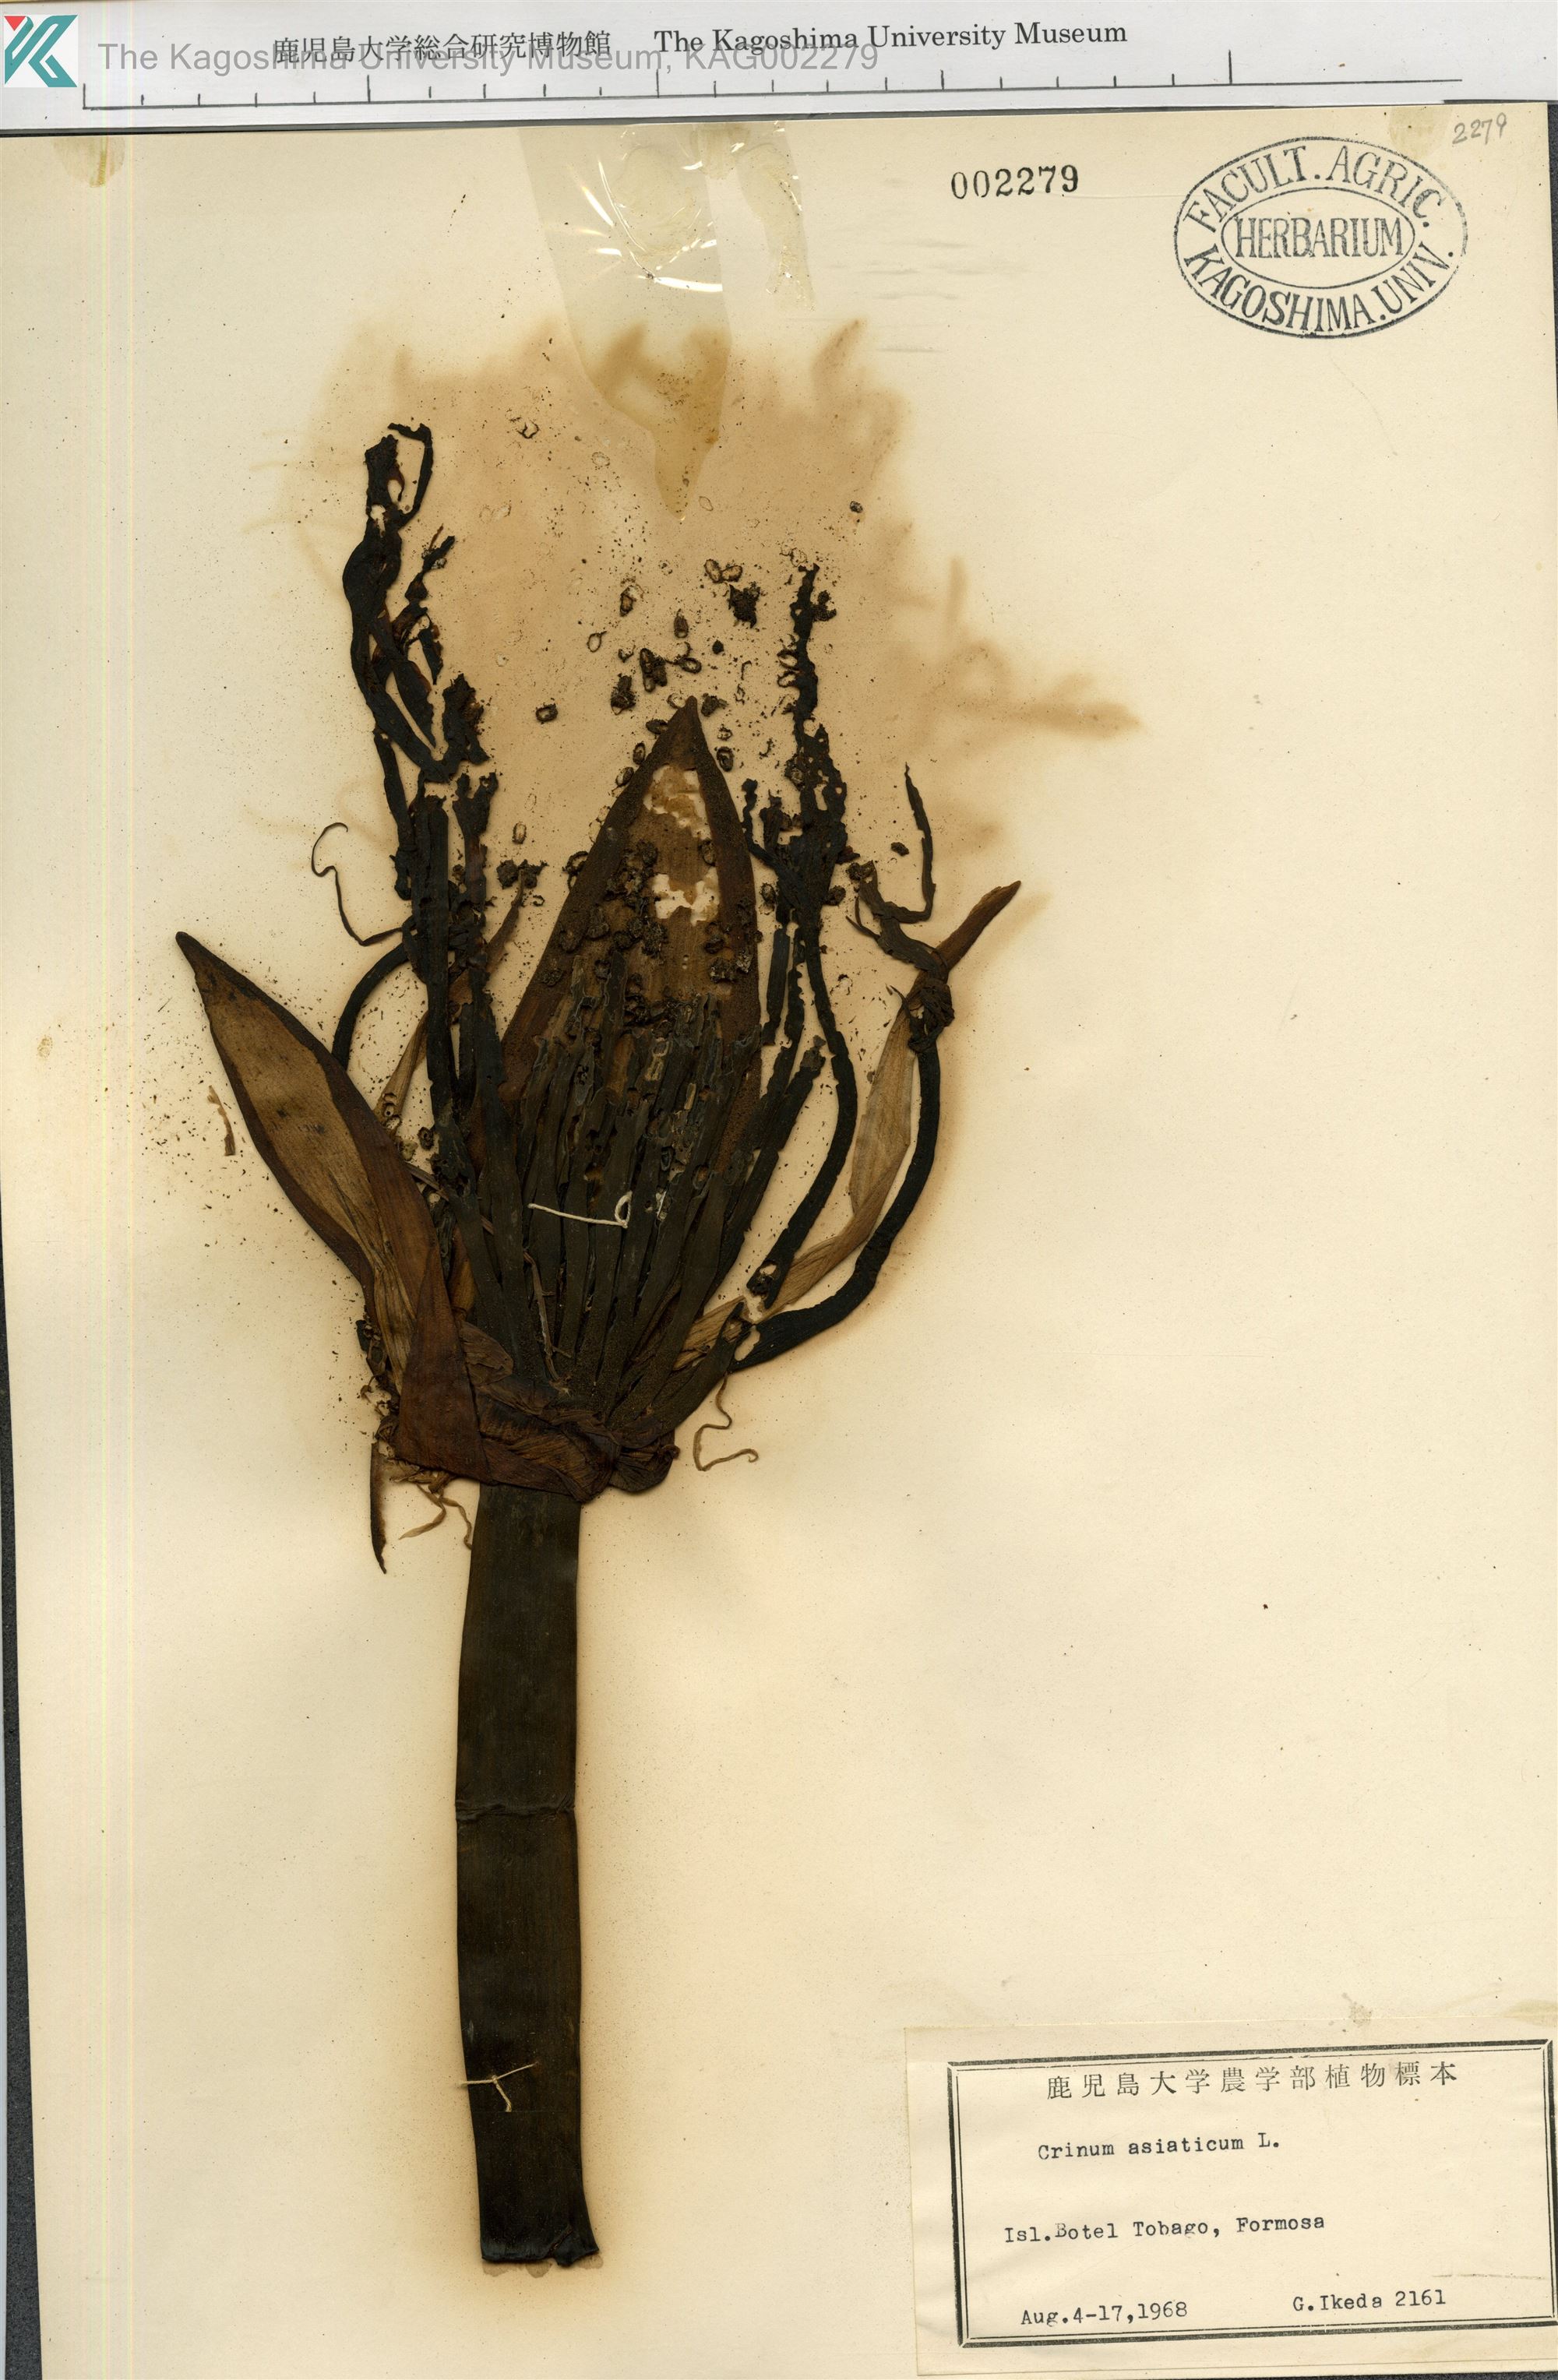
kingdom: Plantae
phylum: Tracheophyta
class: Liliopsida
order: Asparagales
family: Amaryllidaceae
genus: Crinum
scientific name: Crinum asiaticum
